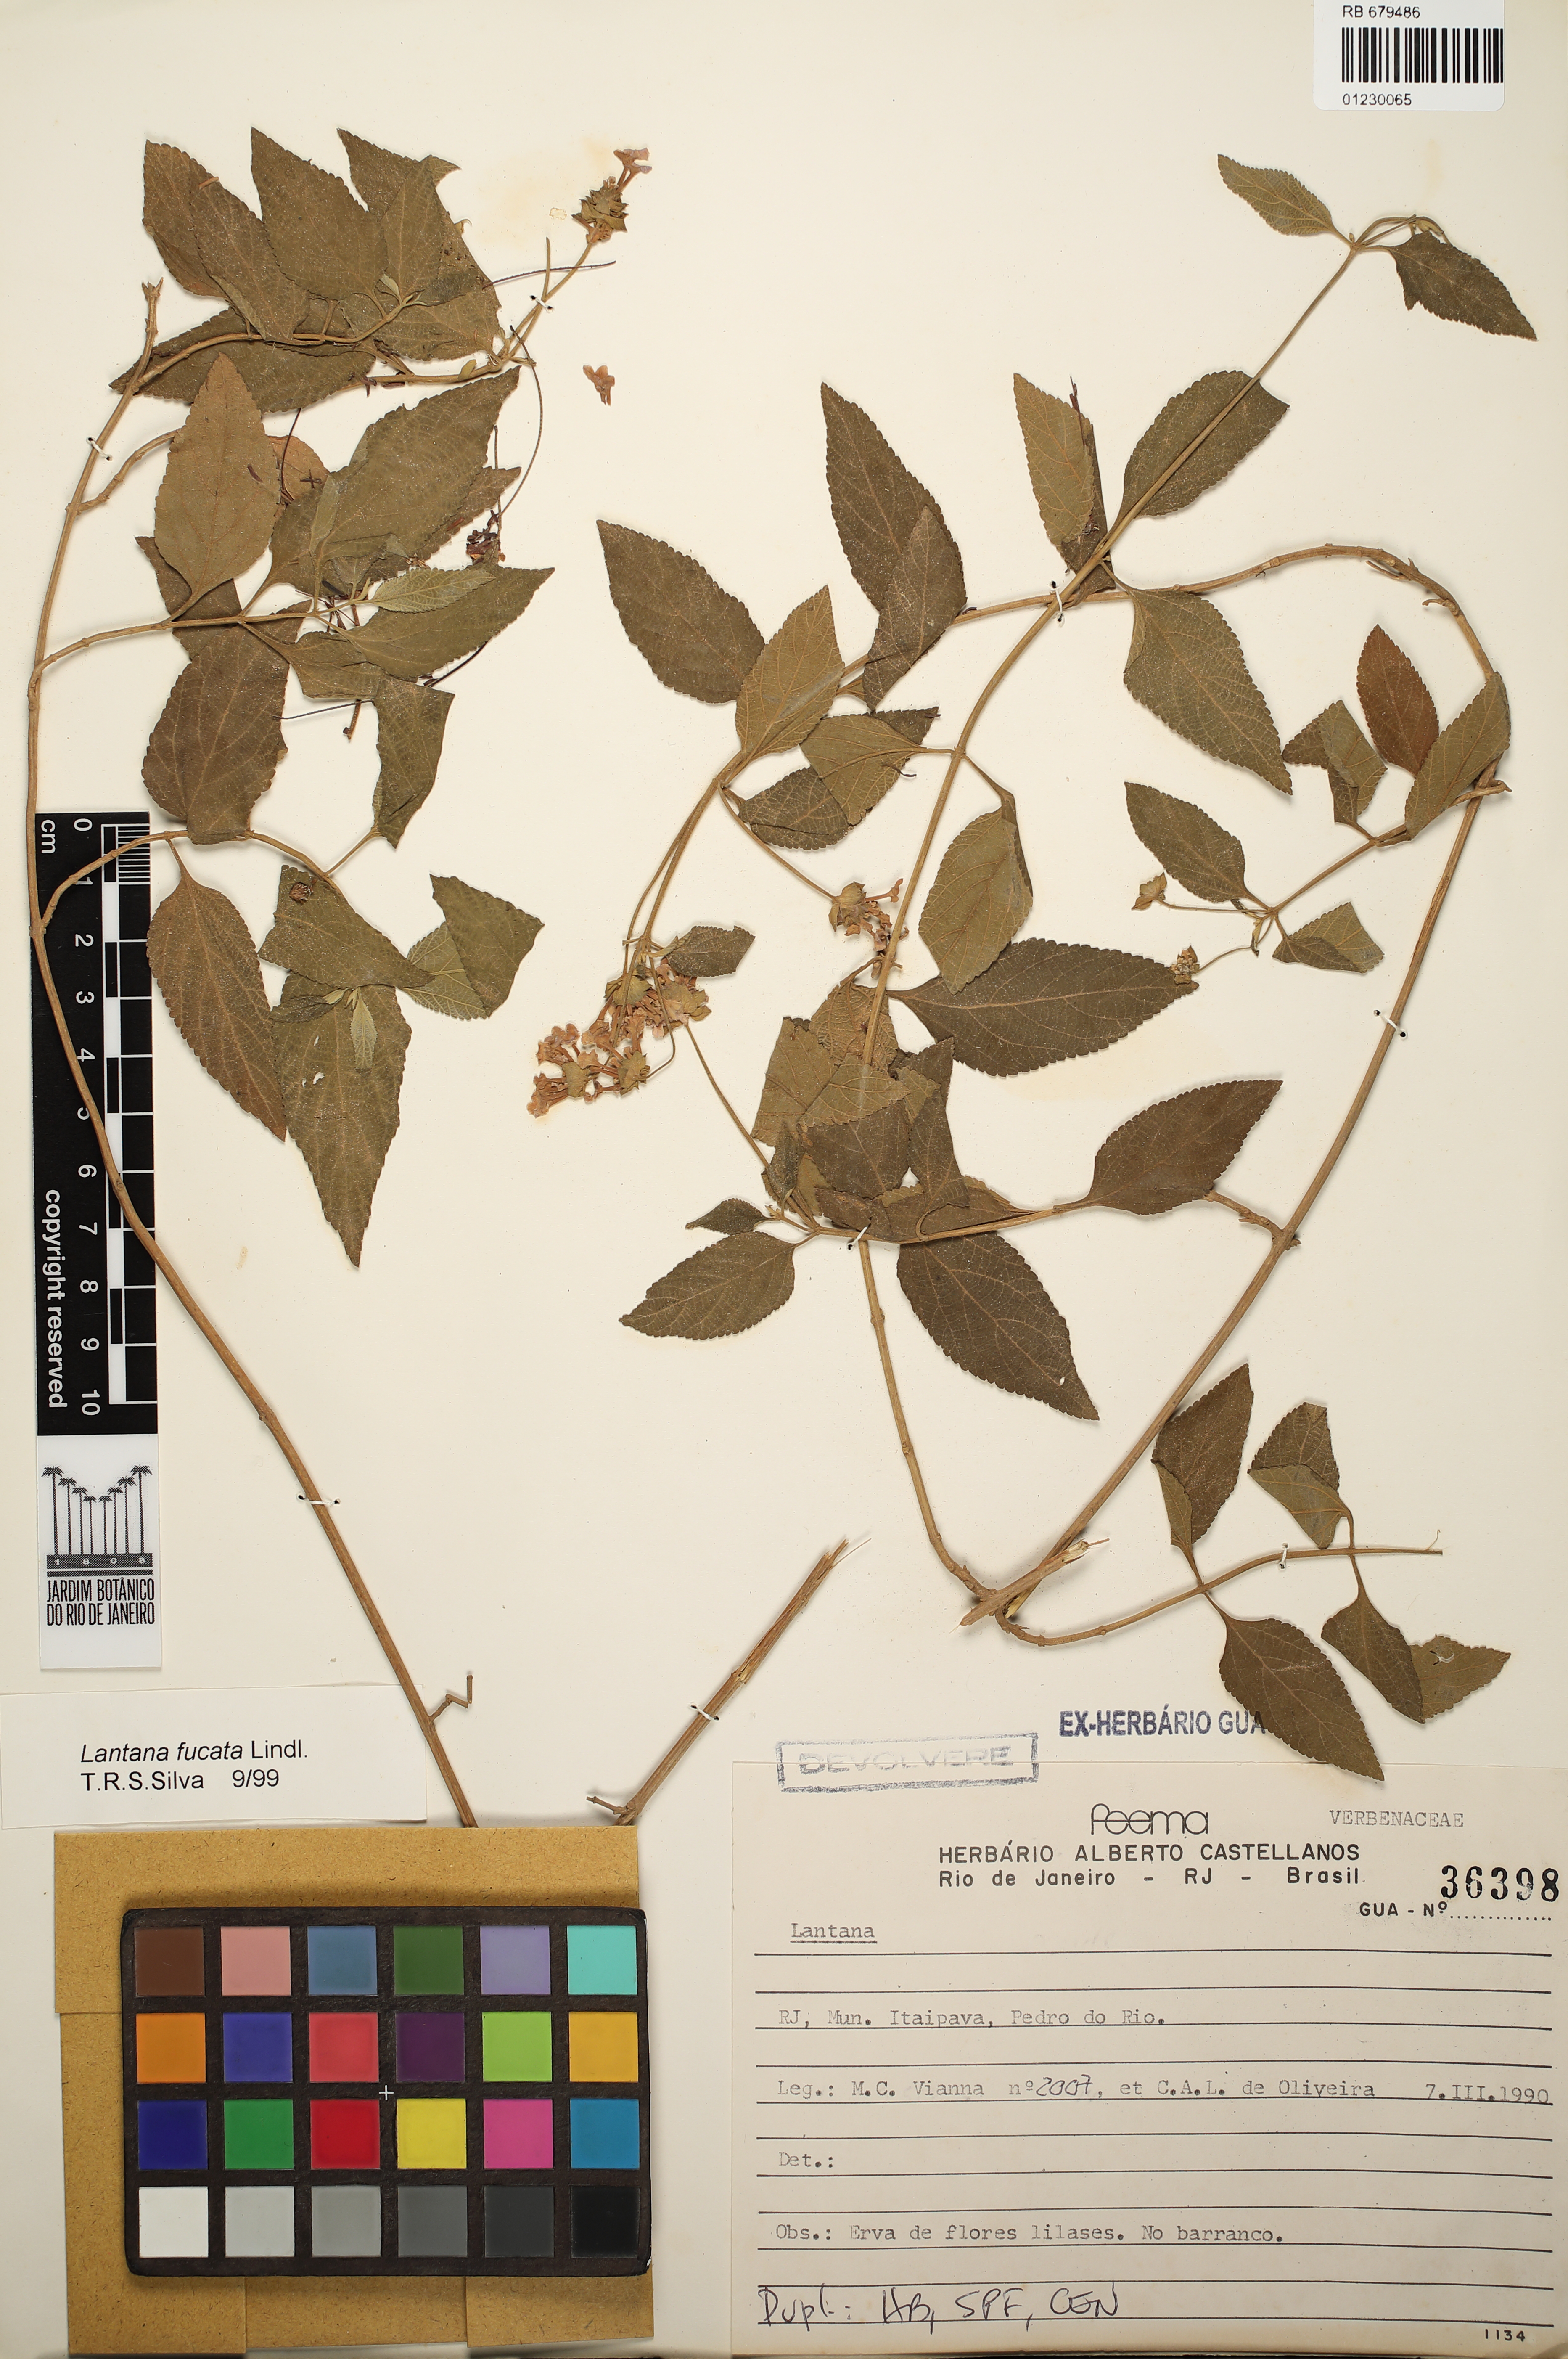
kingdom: Plantae
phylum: Tracheophyta
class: Magnoliopsida
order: Lamiales
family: Verbenaceae
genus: Lantana
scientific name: Lantana fucata
